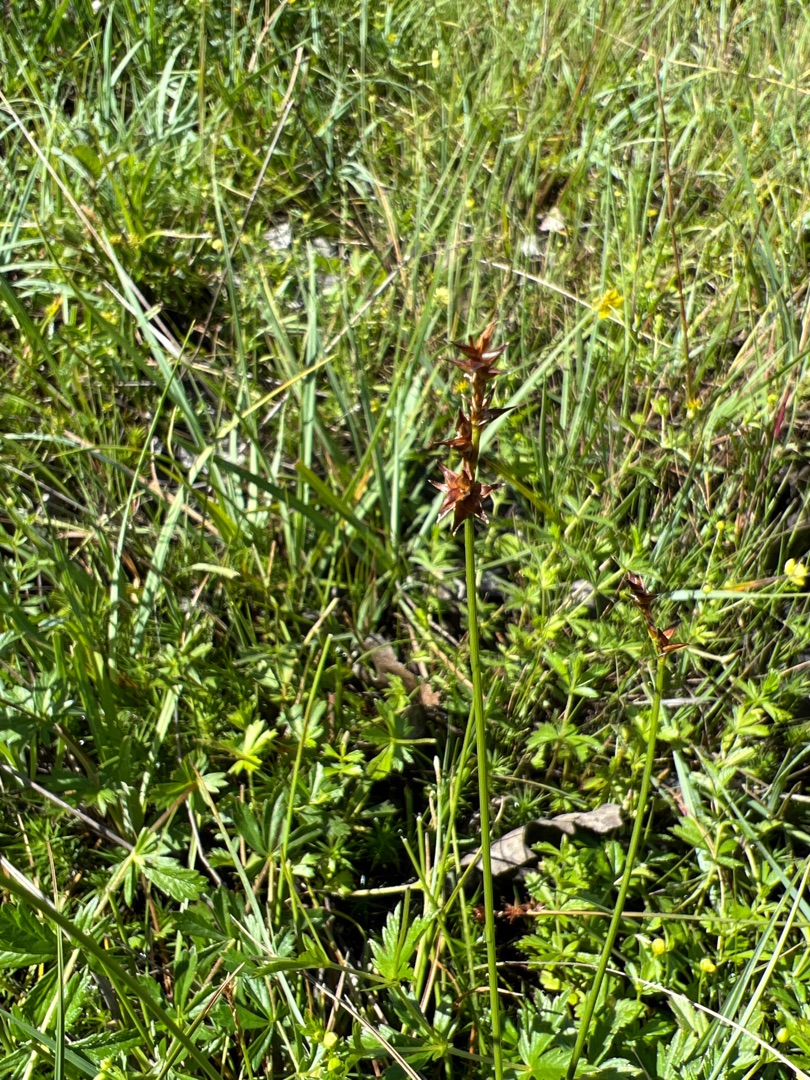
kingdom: Plantae
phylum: Tracheophyta
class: Liliopsida
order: Poales
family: Cyperaceae
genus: Carex
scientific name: Carex echinata
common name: Stjerne-star
